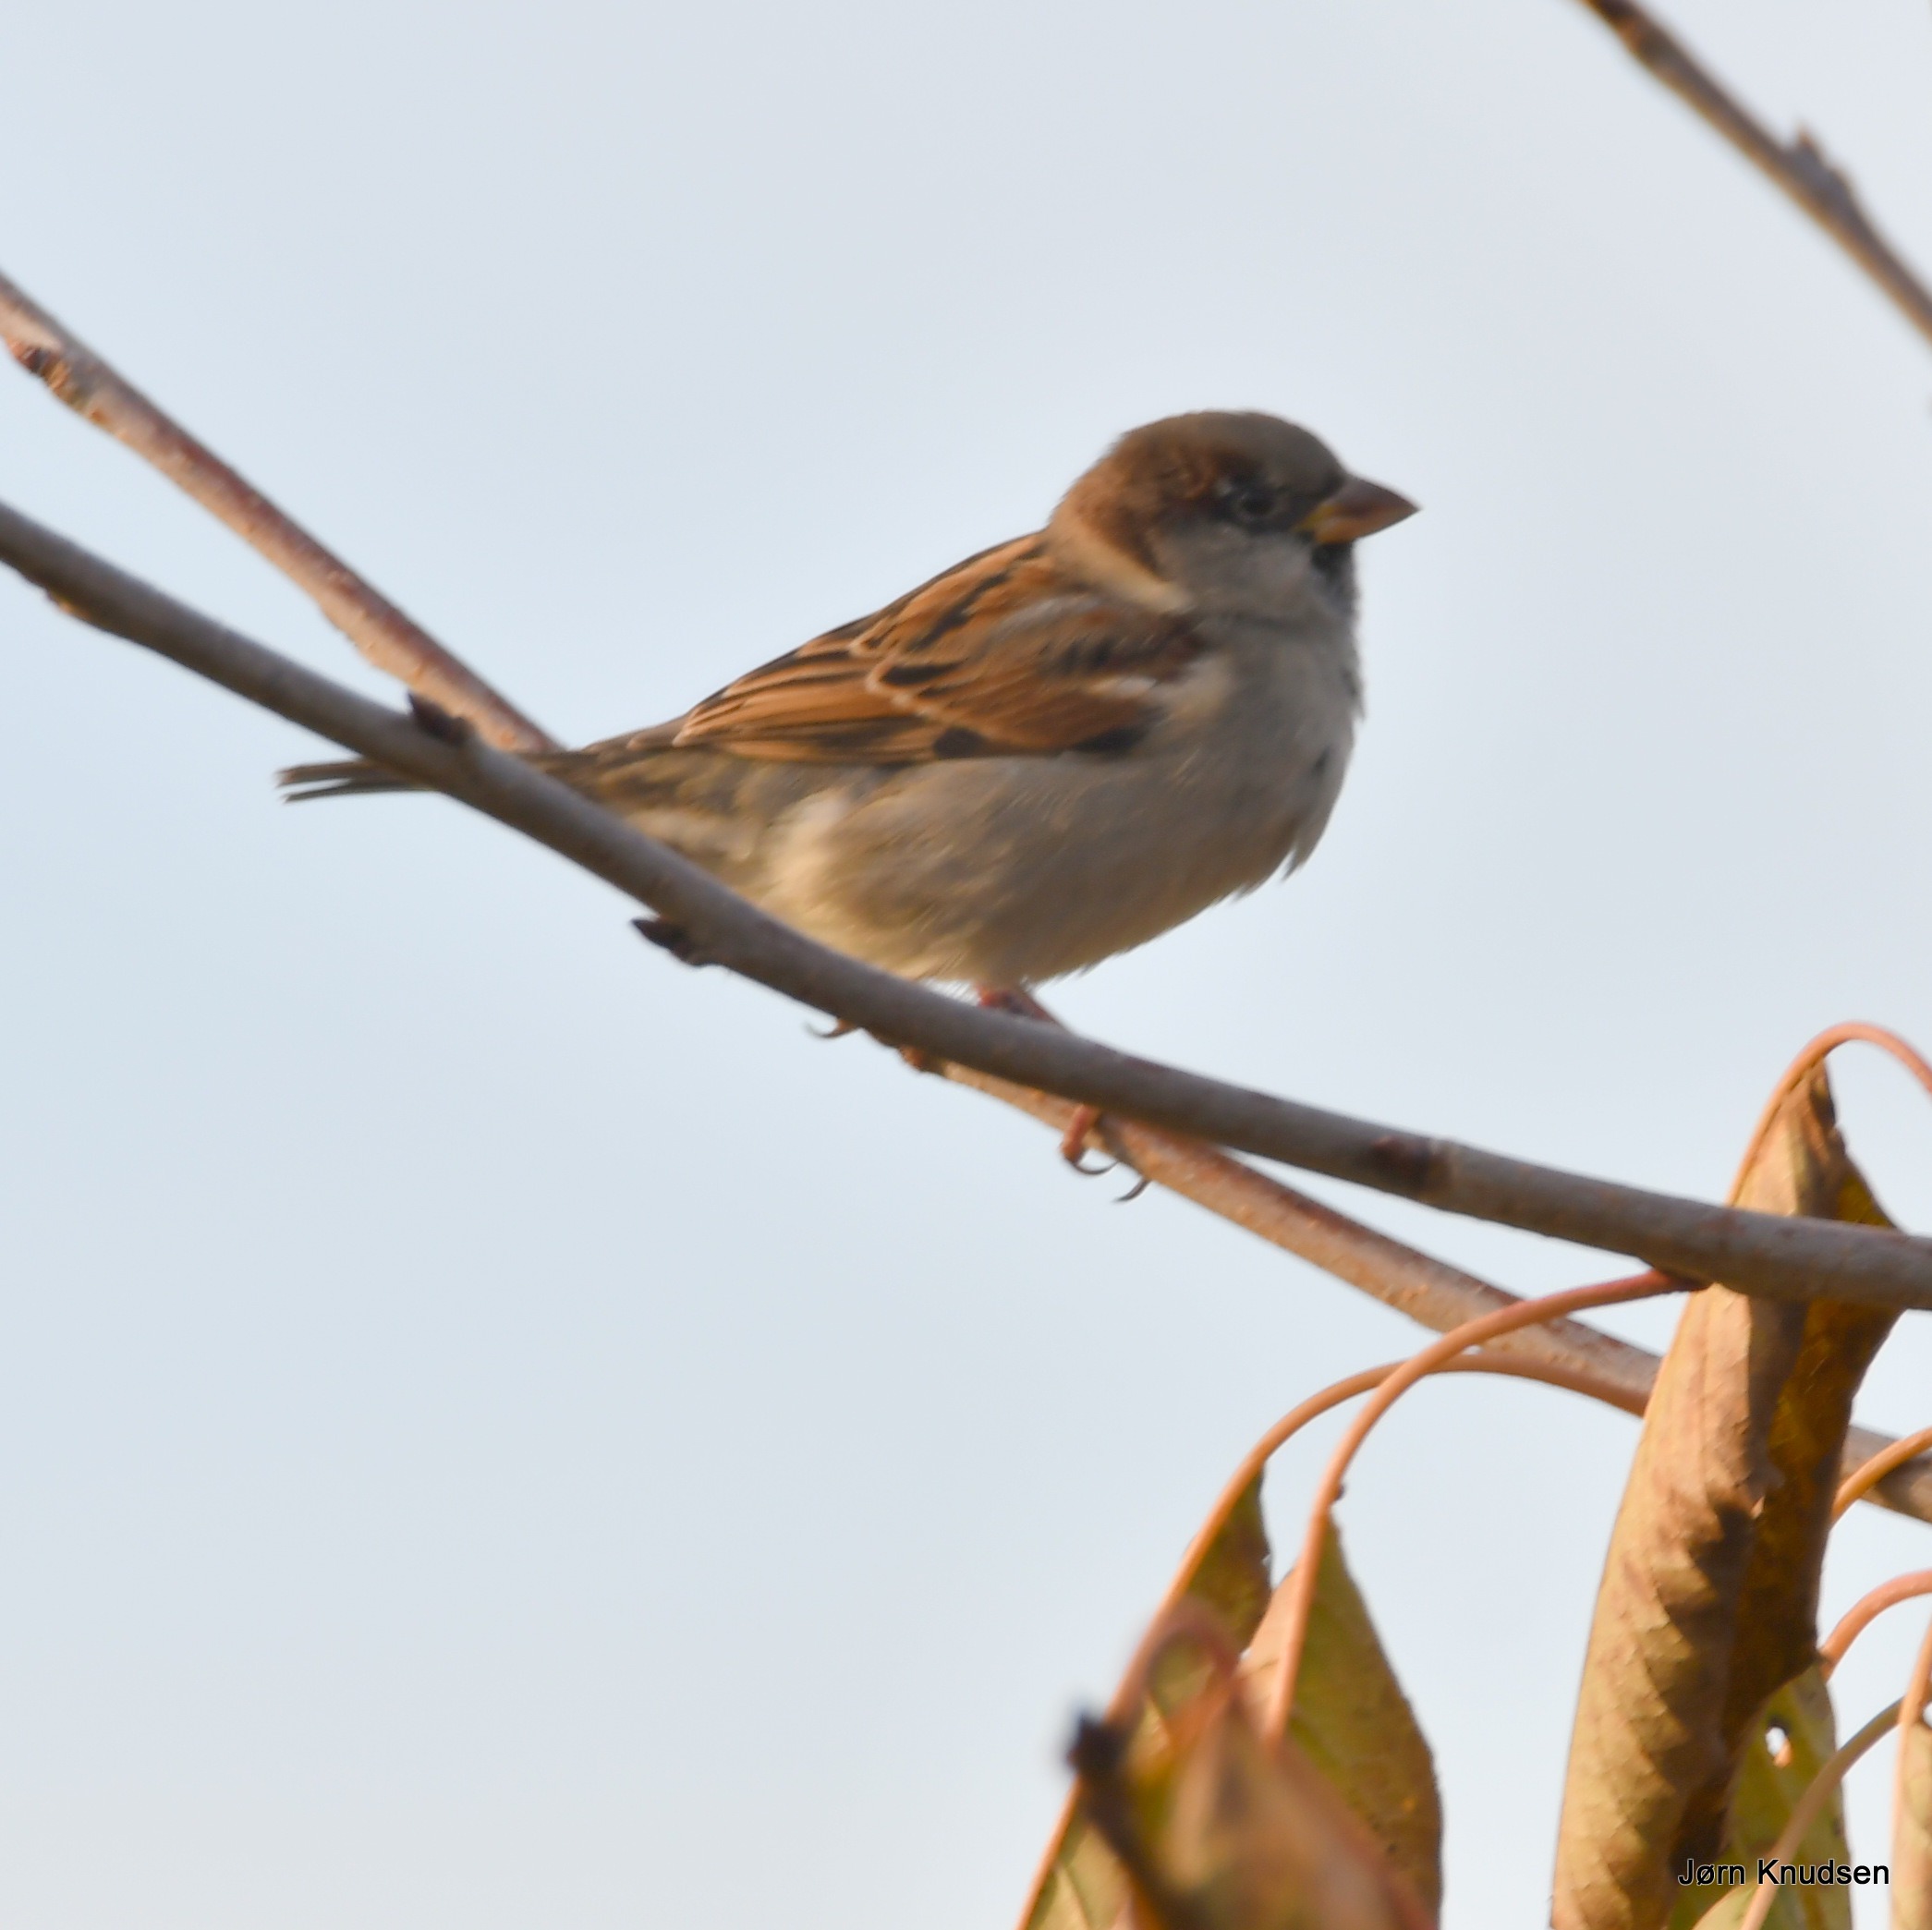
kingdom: Animalia
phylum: Chordata
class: Aves
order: Passeriformes
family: Passeridae
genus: Passer
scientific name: Passer domesticus
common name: Gråspurv
